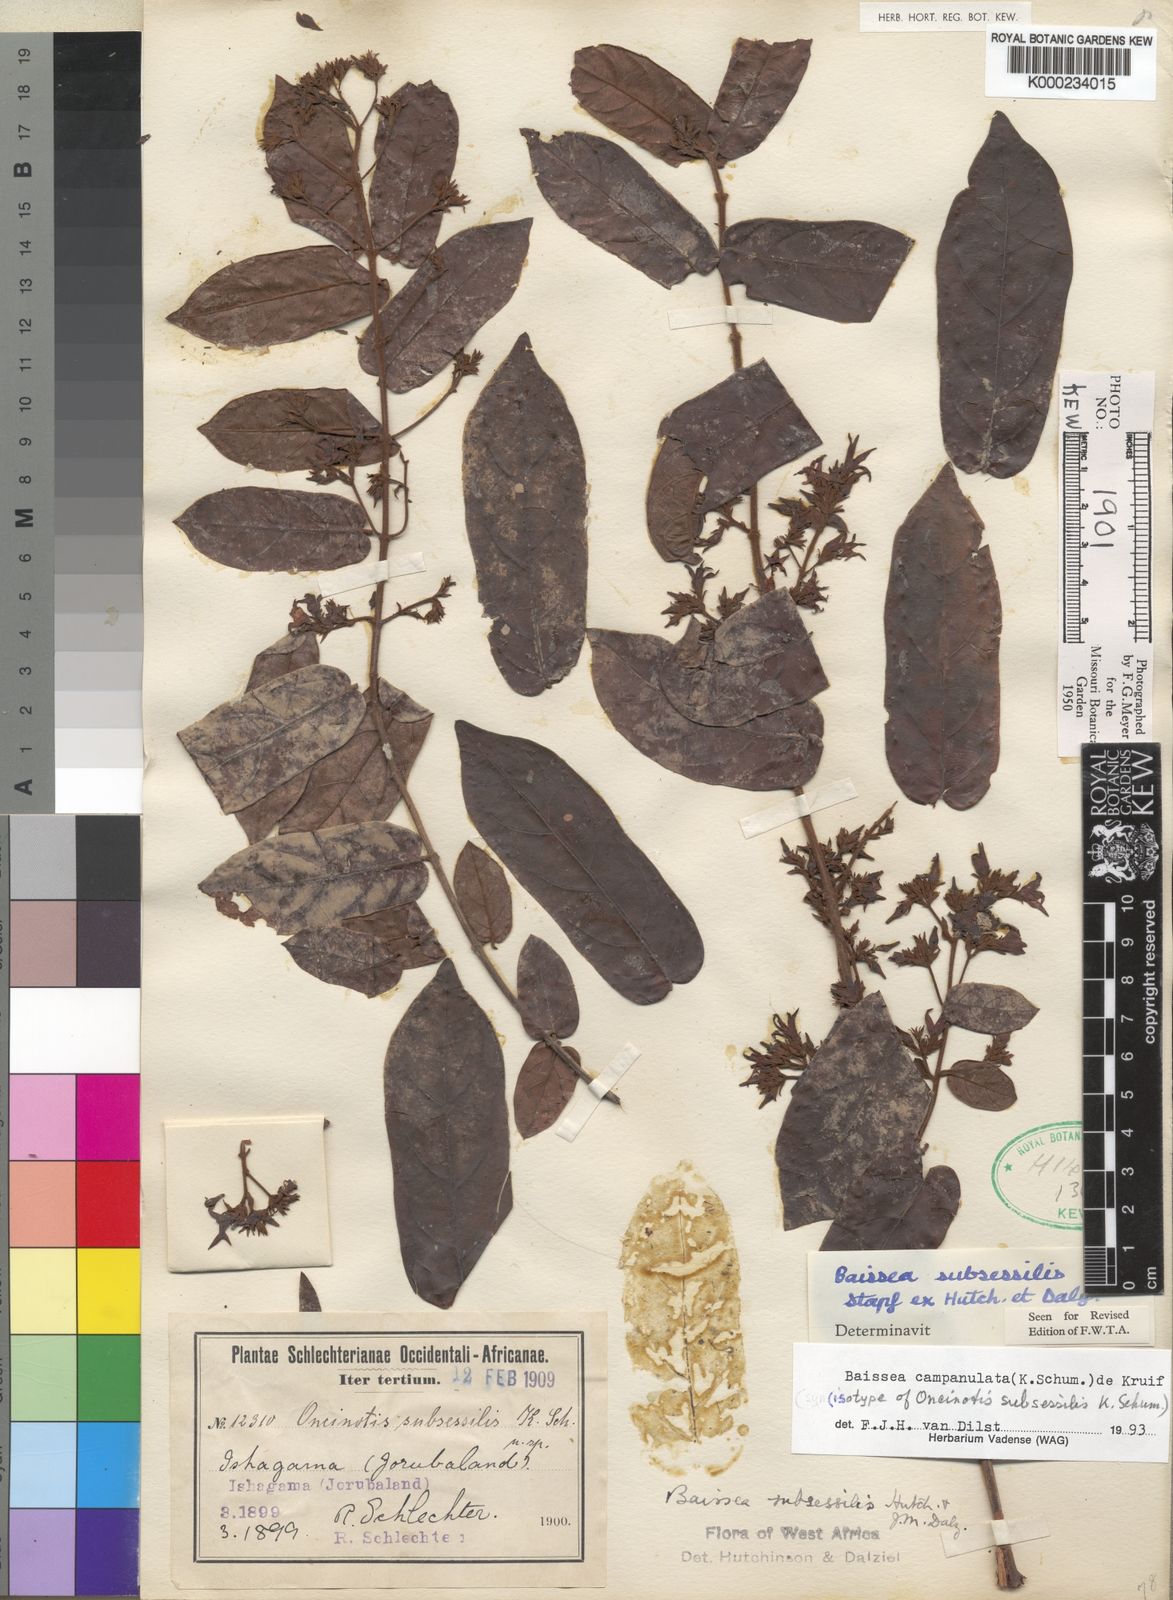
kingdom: Plantae
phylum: Tracheophyta
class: Magnoliopsida
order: Gentianales
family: Apocynaceae
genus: Baissea
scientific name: Baissea campanulata
